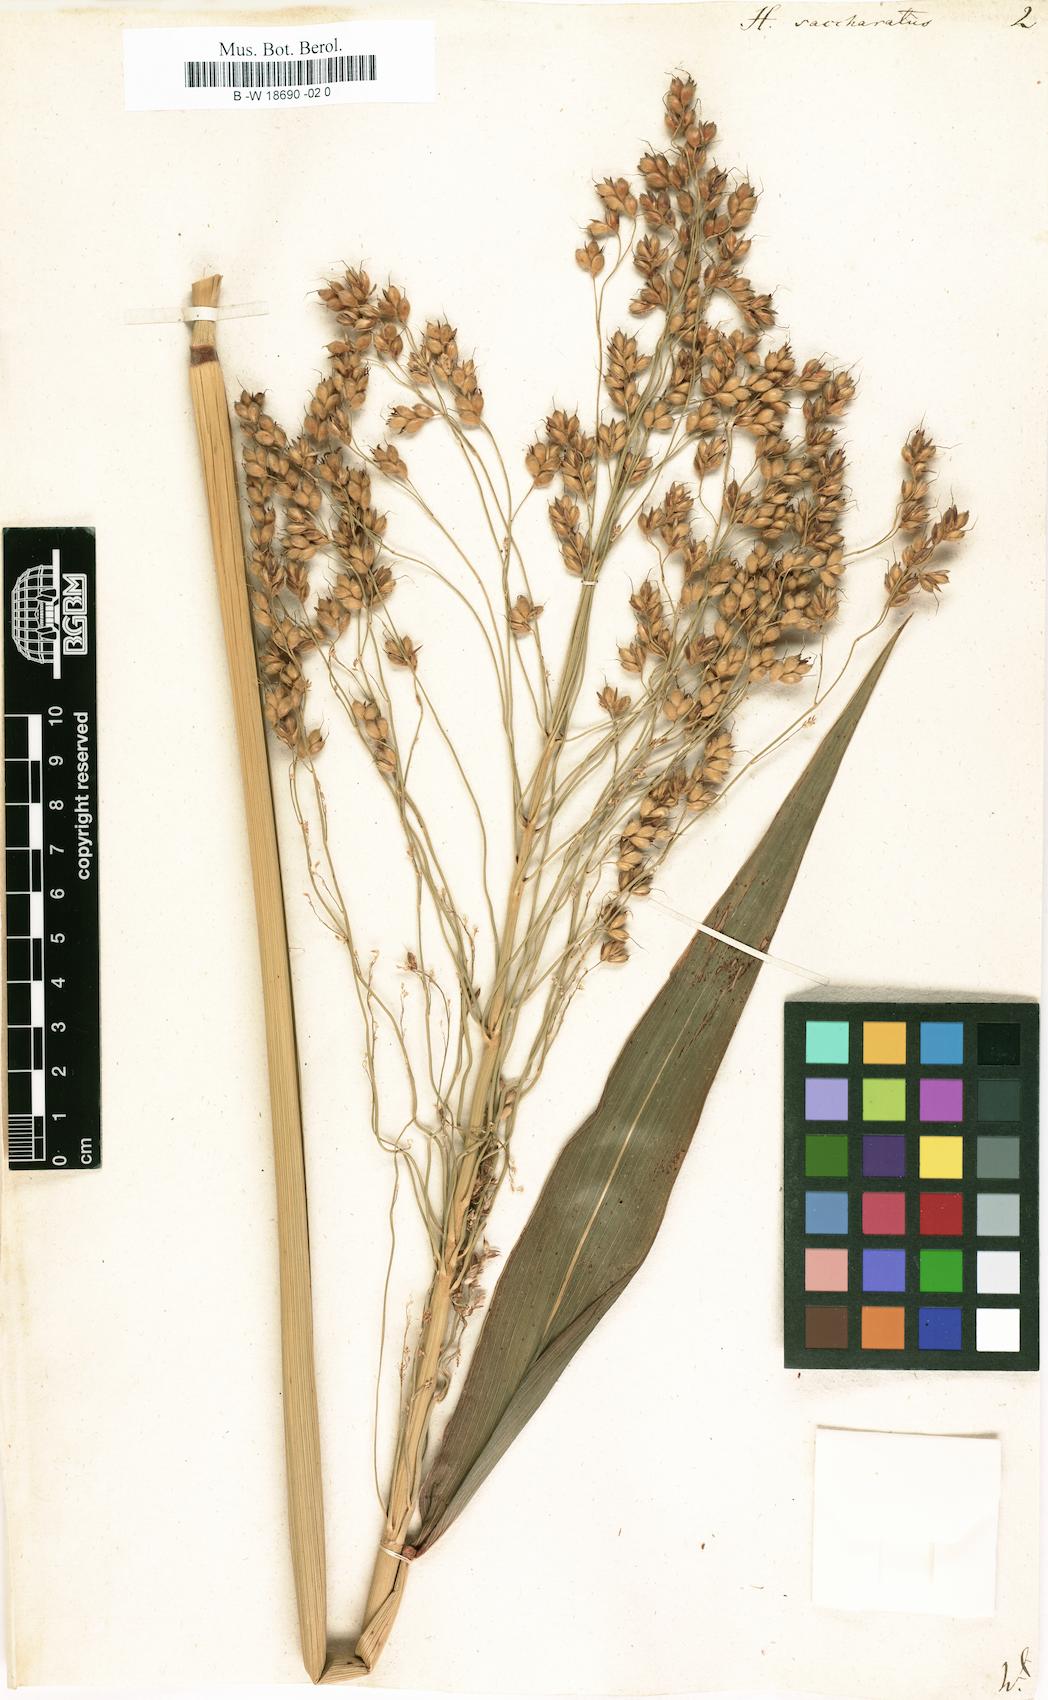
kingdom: Plantae
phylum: Tracheophyta
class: Liliopsida
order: Poales
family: Poaceae
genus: Sorghum
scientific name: Sorghum bicolor
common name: Sorghum
